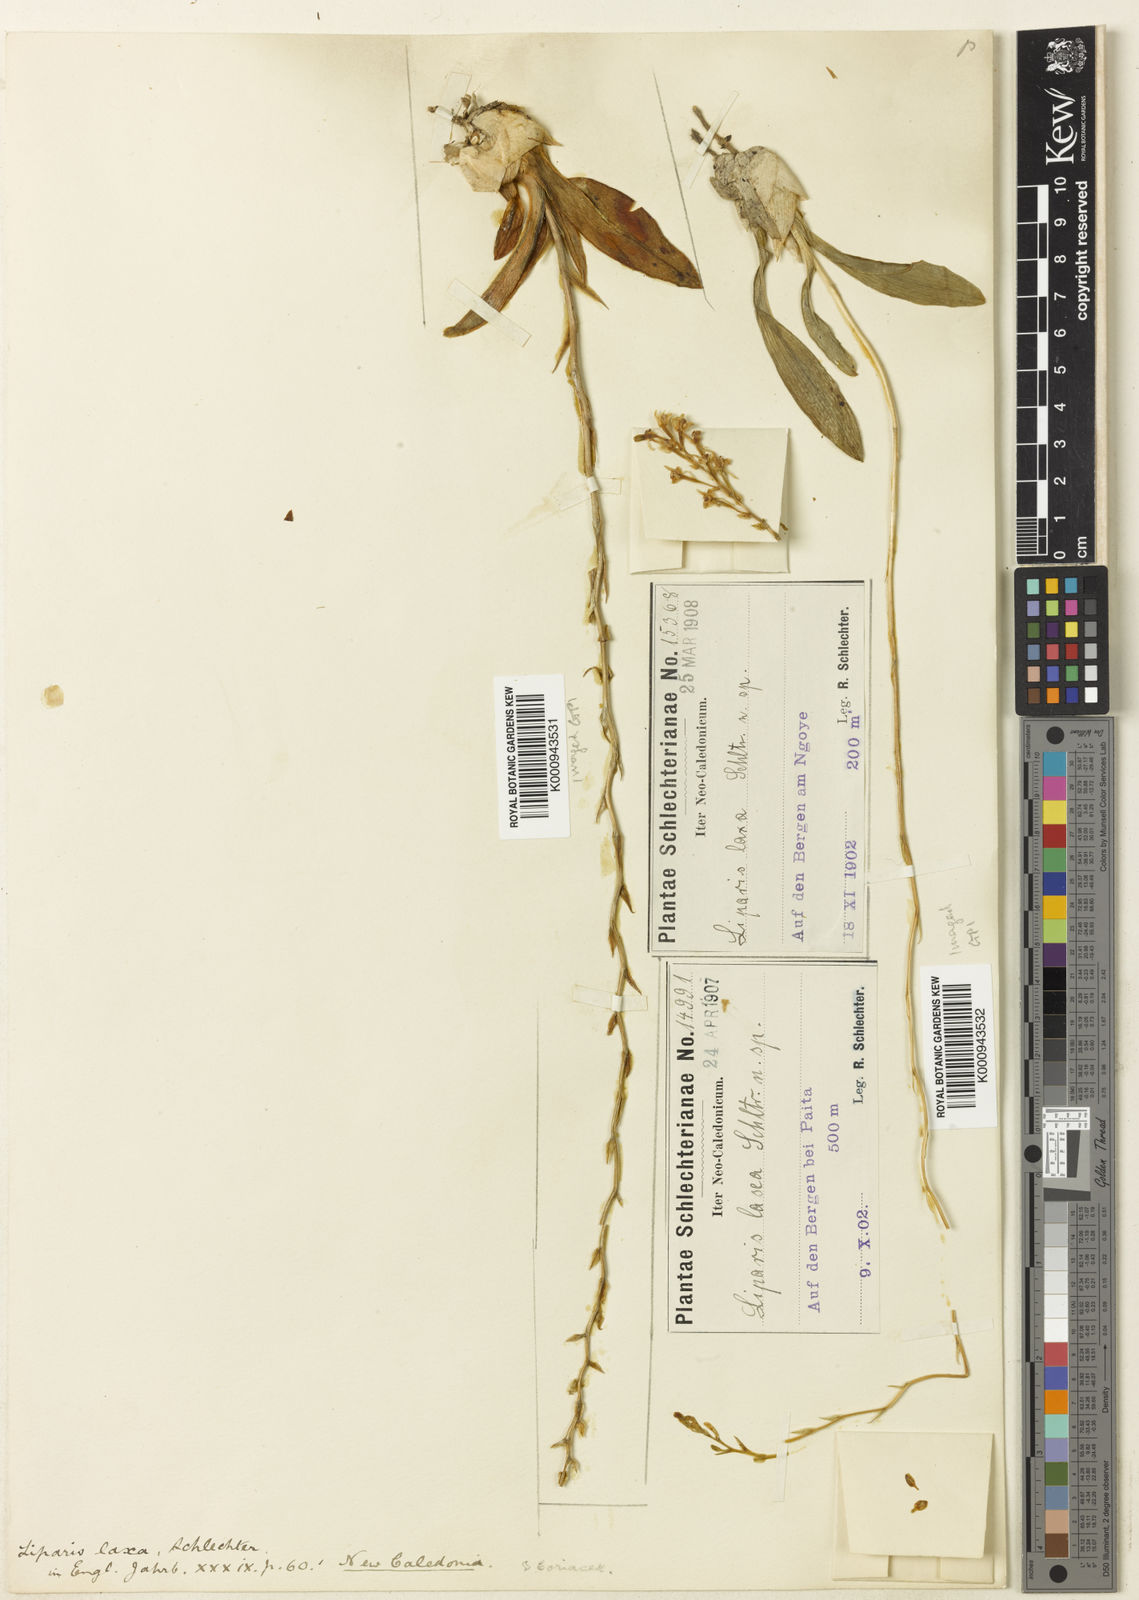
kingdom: Plantae
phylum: Tracheophyta
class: Liliopsida
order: Asparagales
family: Orchidaceae
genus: Liparis
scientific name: Liparis laxa
